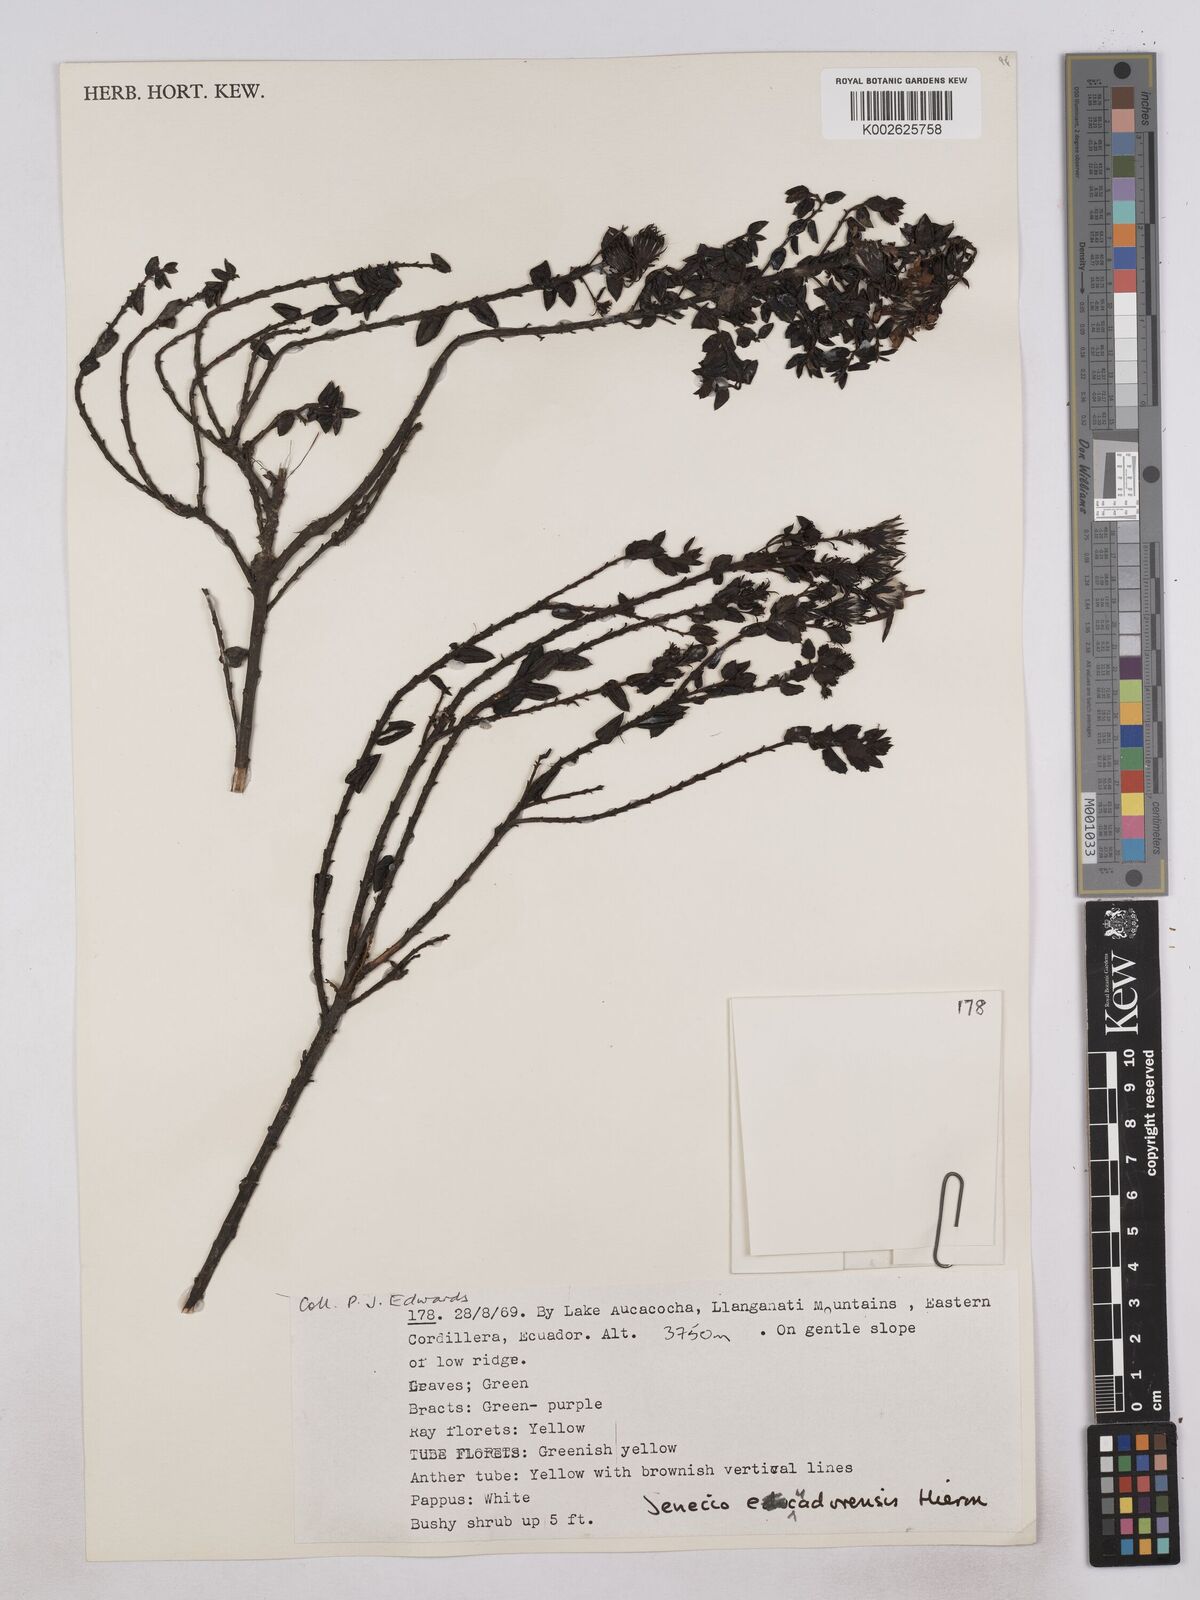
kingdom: Plantae
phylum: Tracheophyta
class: Magnoliopsida
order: Asterales
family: Asteraceae
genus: Monticalia
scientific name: Monticalia myrsinites
